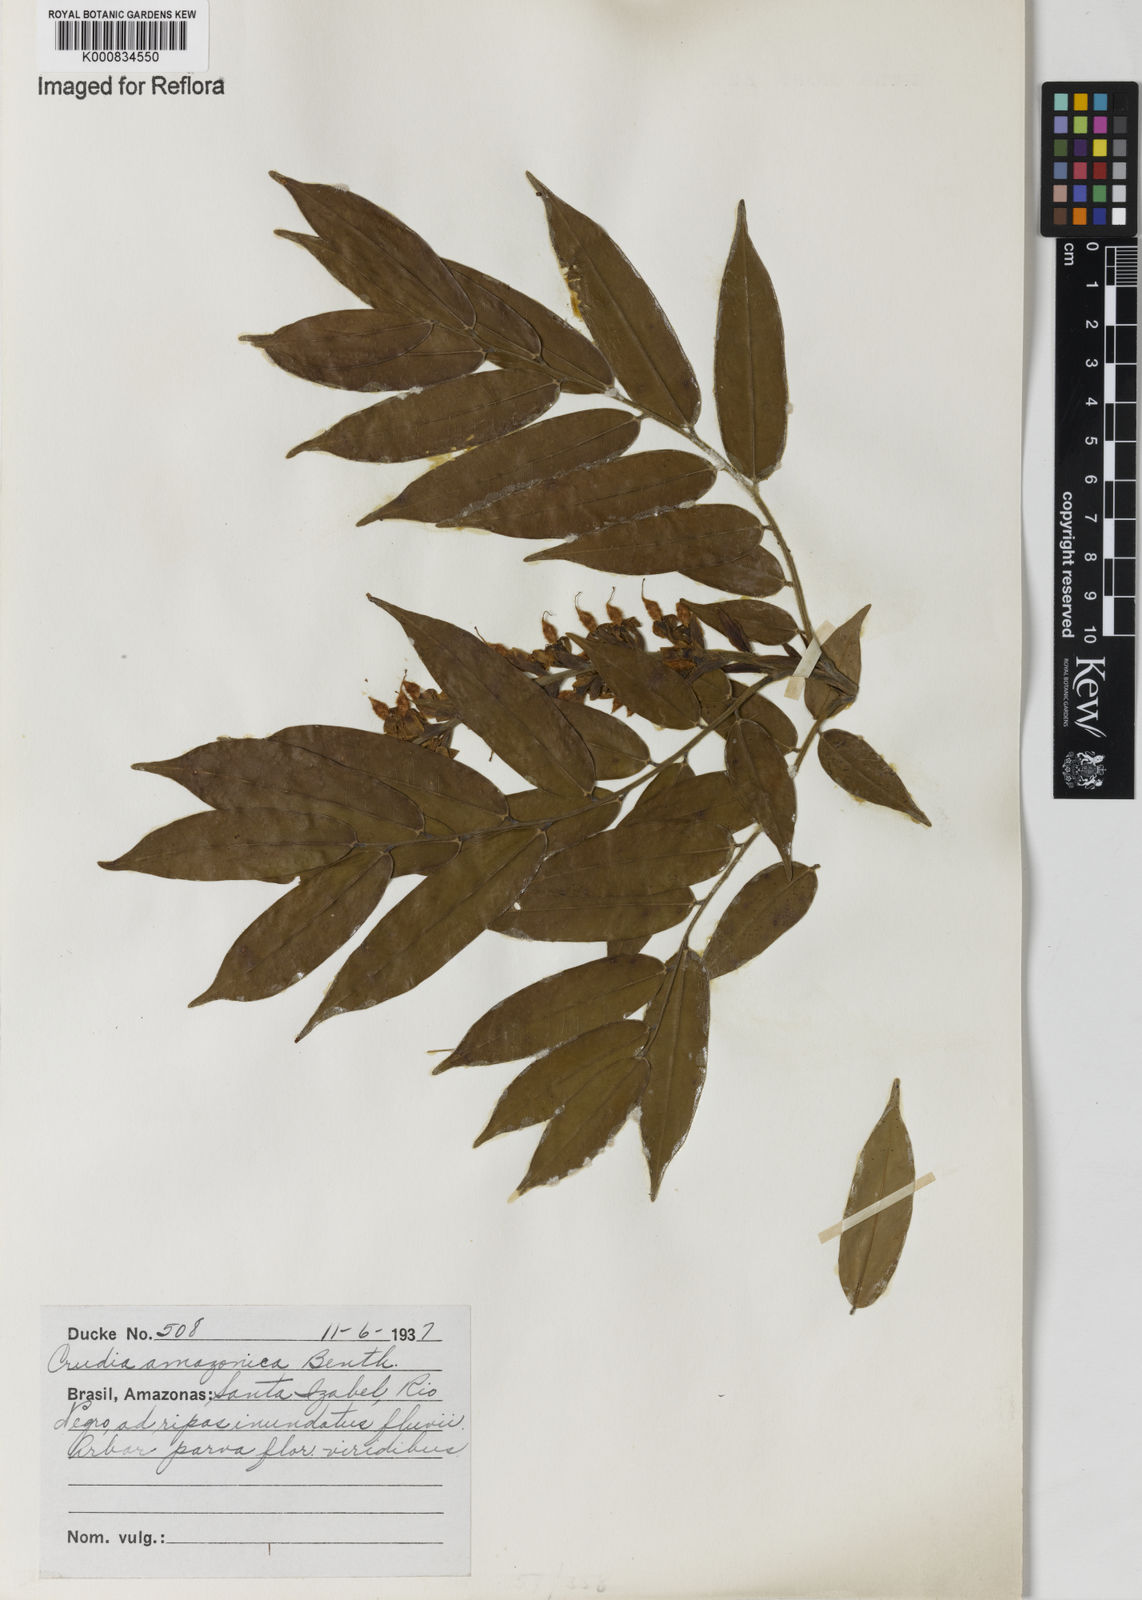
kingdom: Plantae
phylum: Tracheophyta
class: Magnoliopsida
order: Fabales
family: Fabaceae
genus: Crudia
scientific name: Crudia
